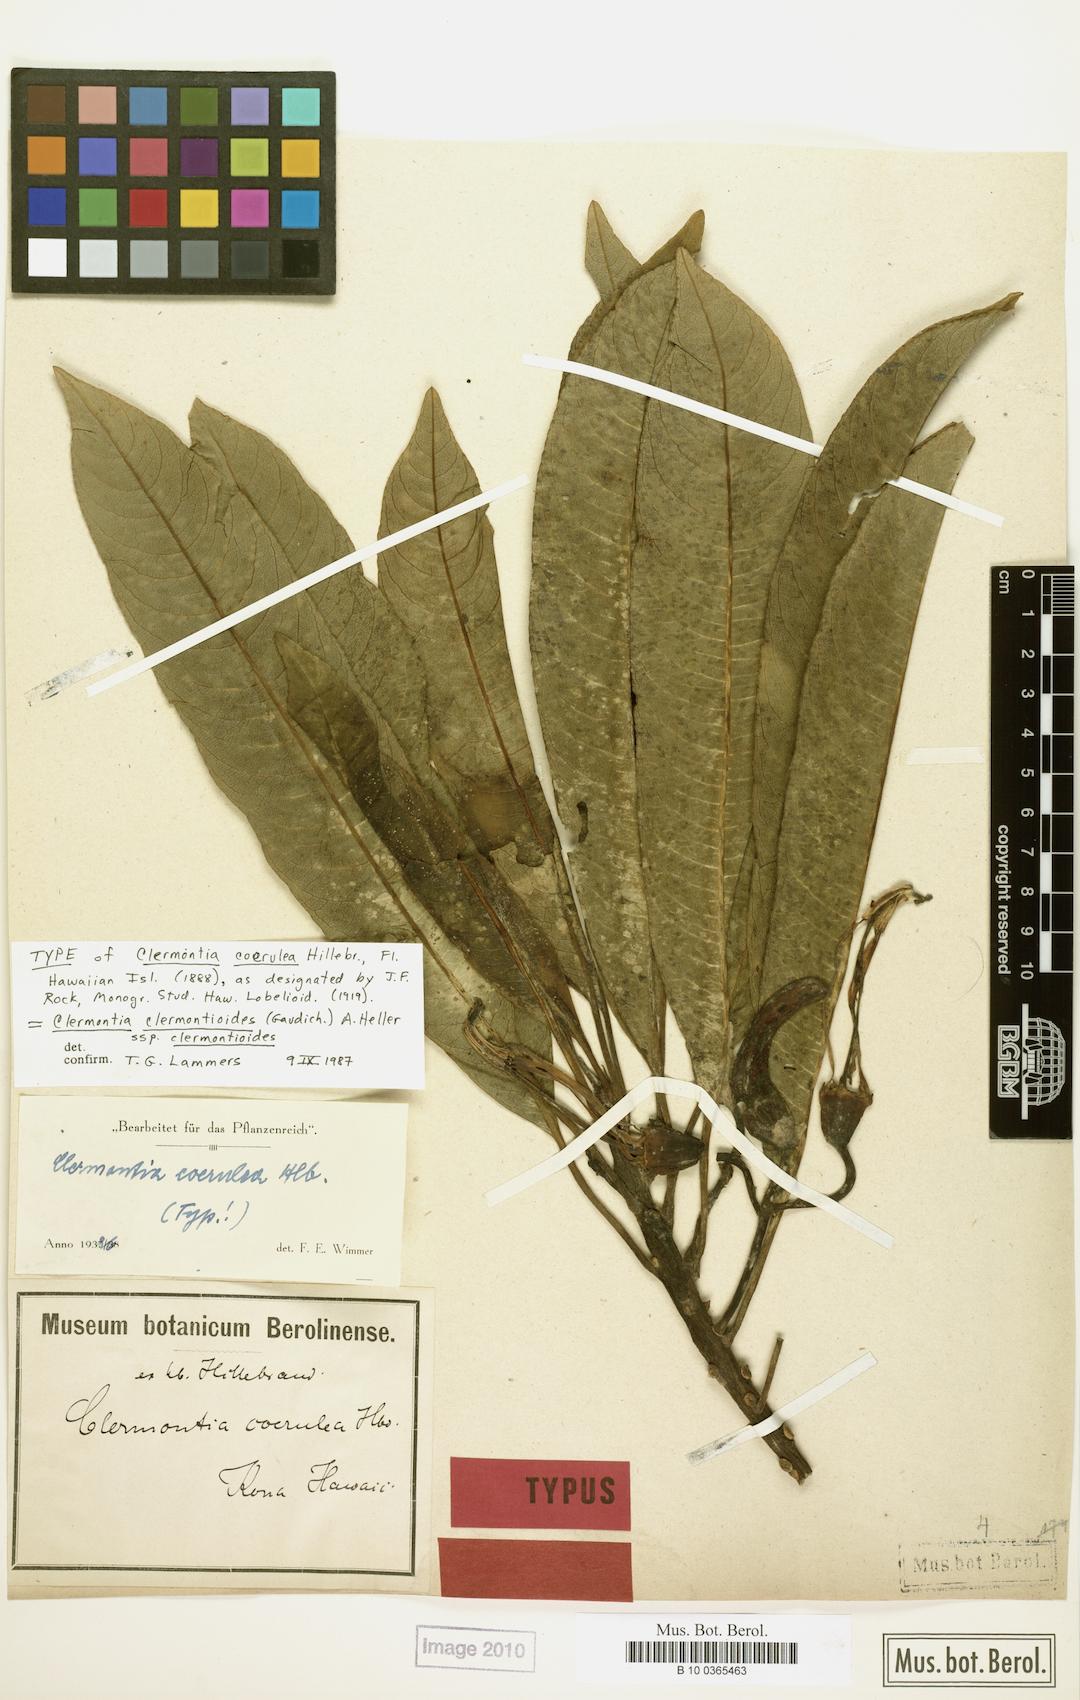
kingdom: Plantae
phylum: Tracheophyta
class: Magnoliopsida
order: Asterales
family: Campanulaceae
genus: Clermontia
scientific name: Clermontia clermontioides
